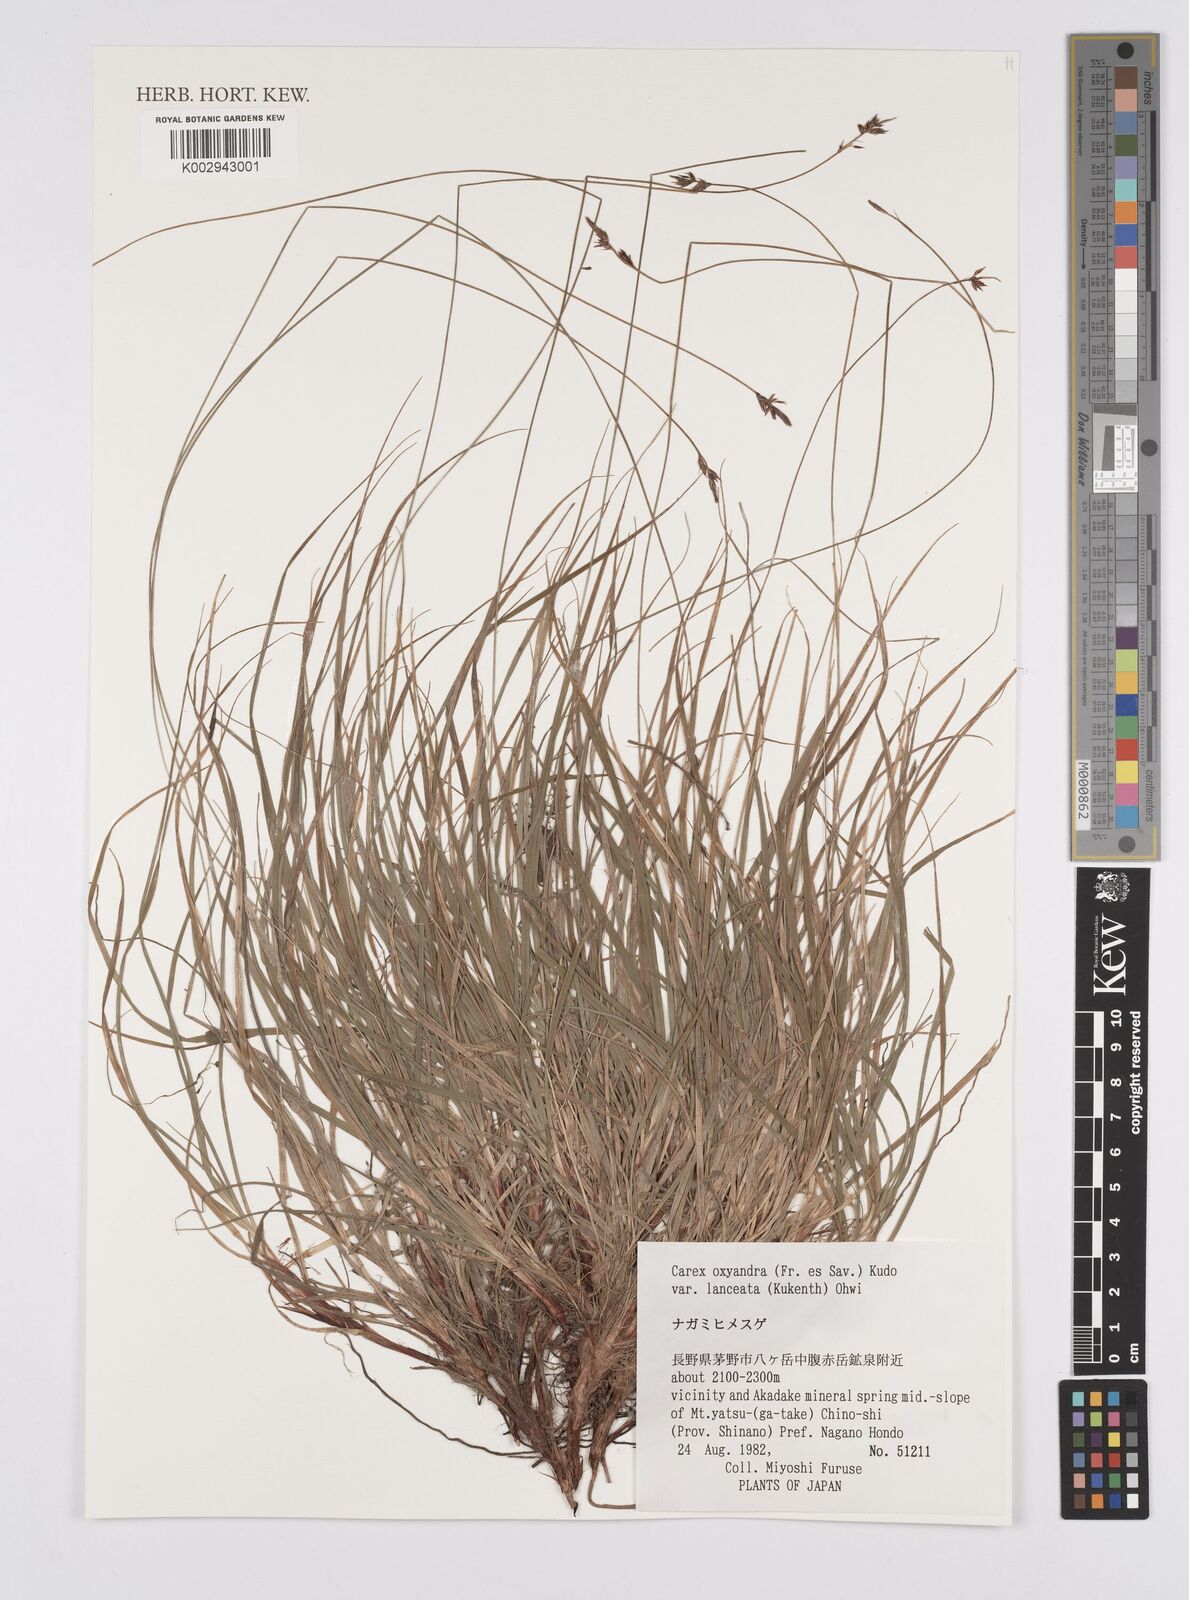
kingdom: Plantae
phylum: Tracheophyta
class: Liliopsida
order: Poales
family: Cyperaceae
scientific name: Cyperaceae
